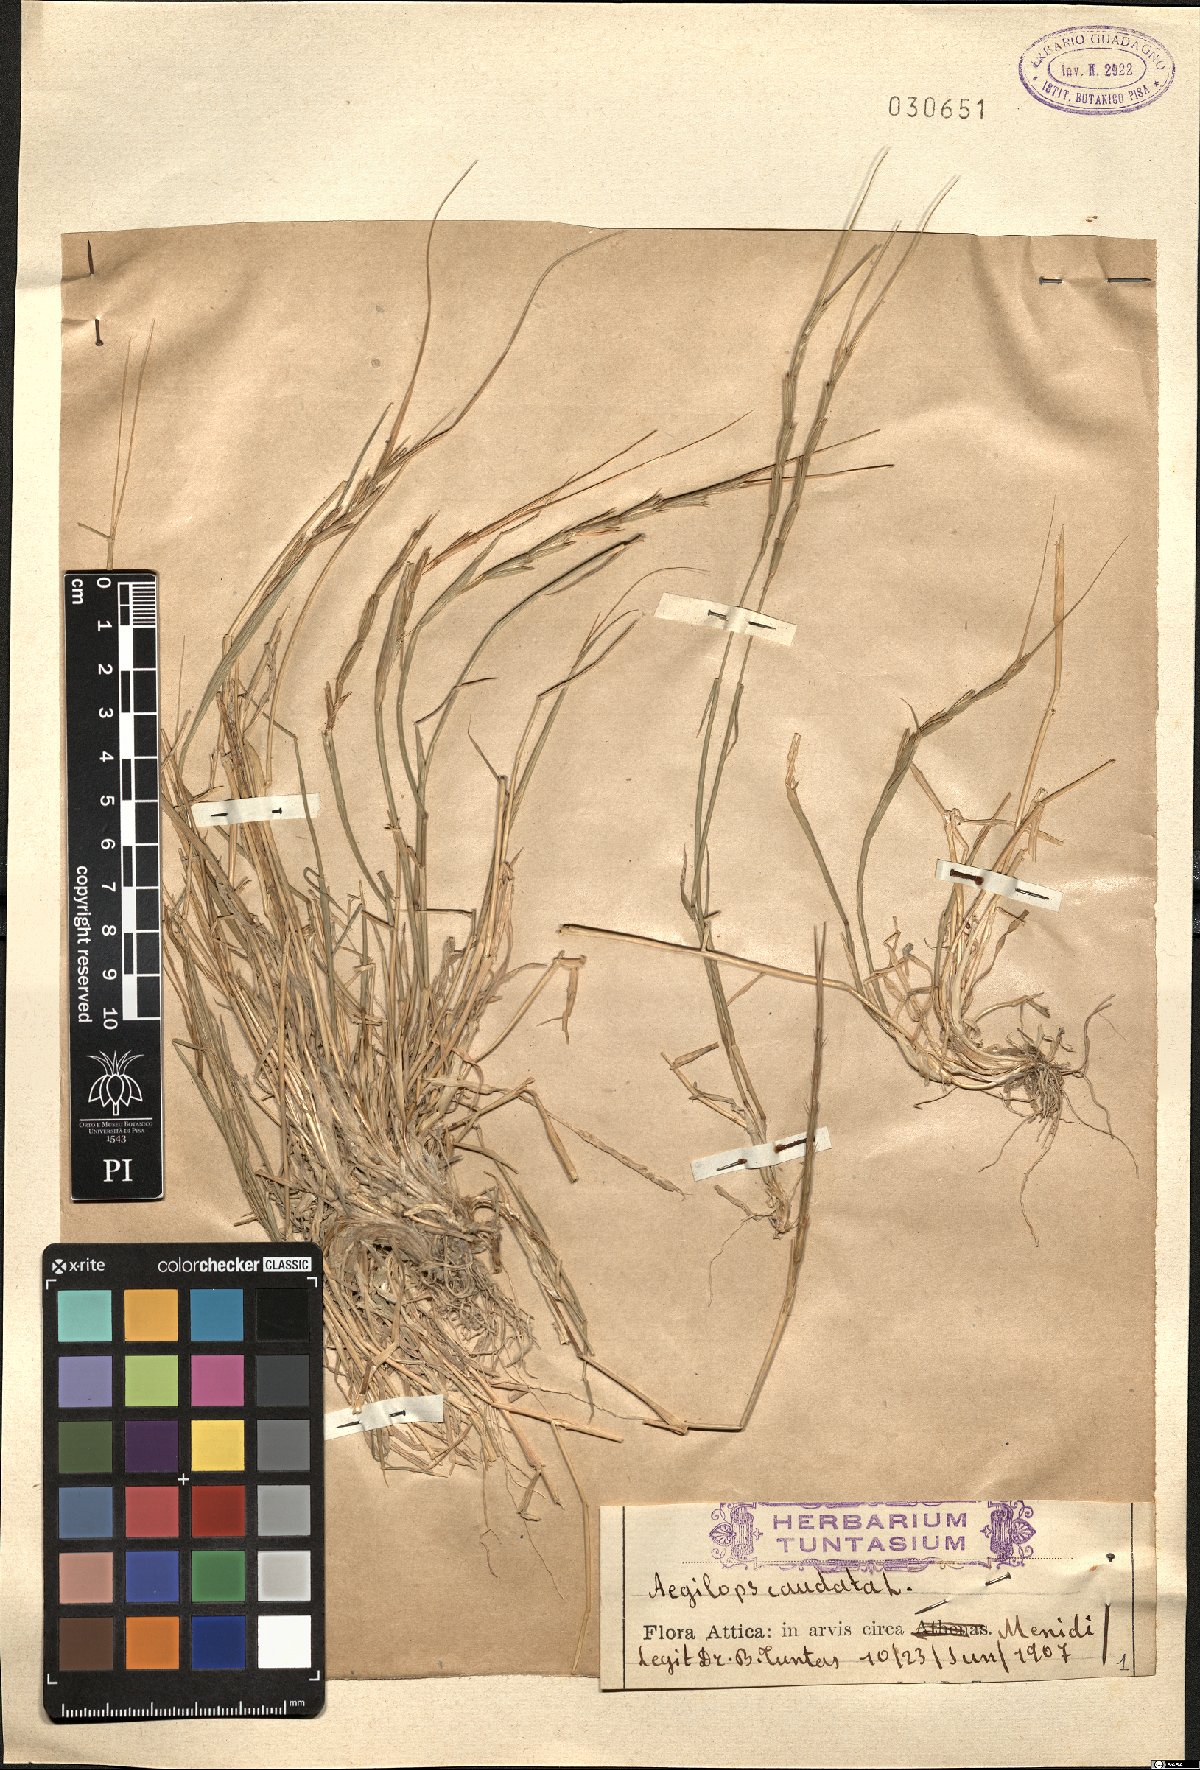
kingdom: Plantae
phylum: Tracheophyta
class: Liliopsida
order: Poales
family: Poaceae
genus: Aegilops
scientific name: Aegilops caudata
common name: Cretan hard-grass
